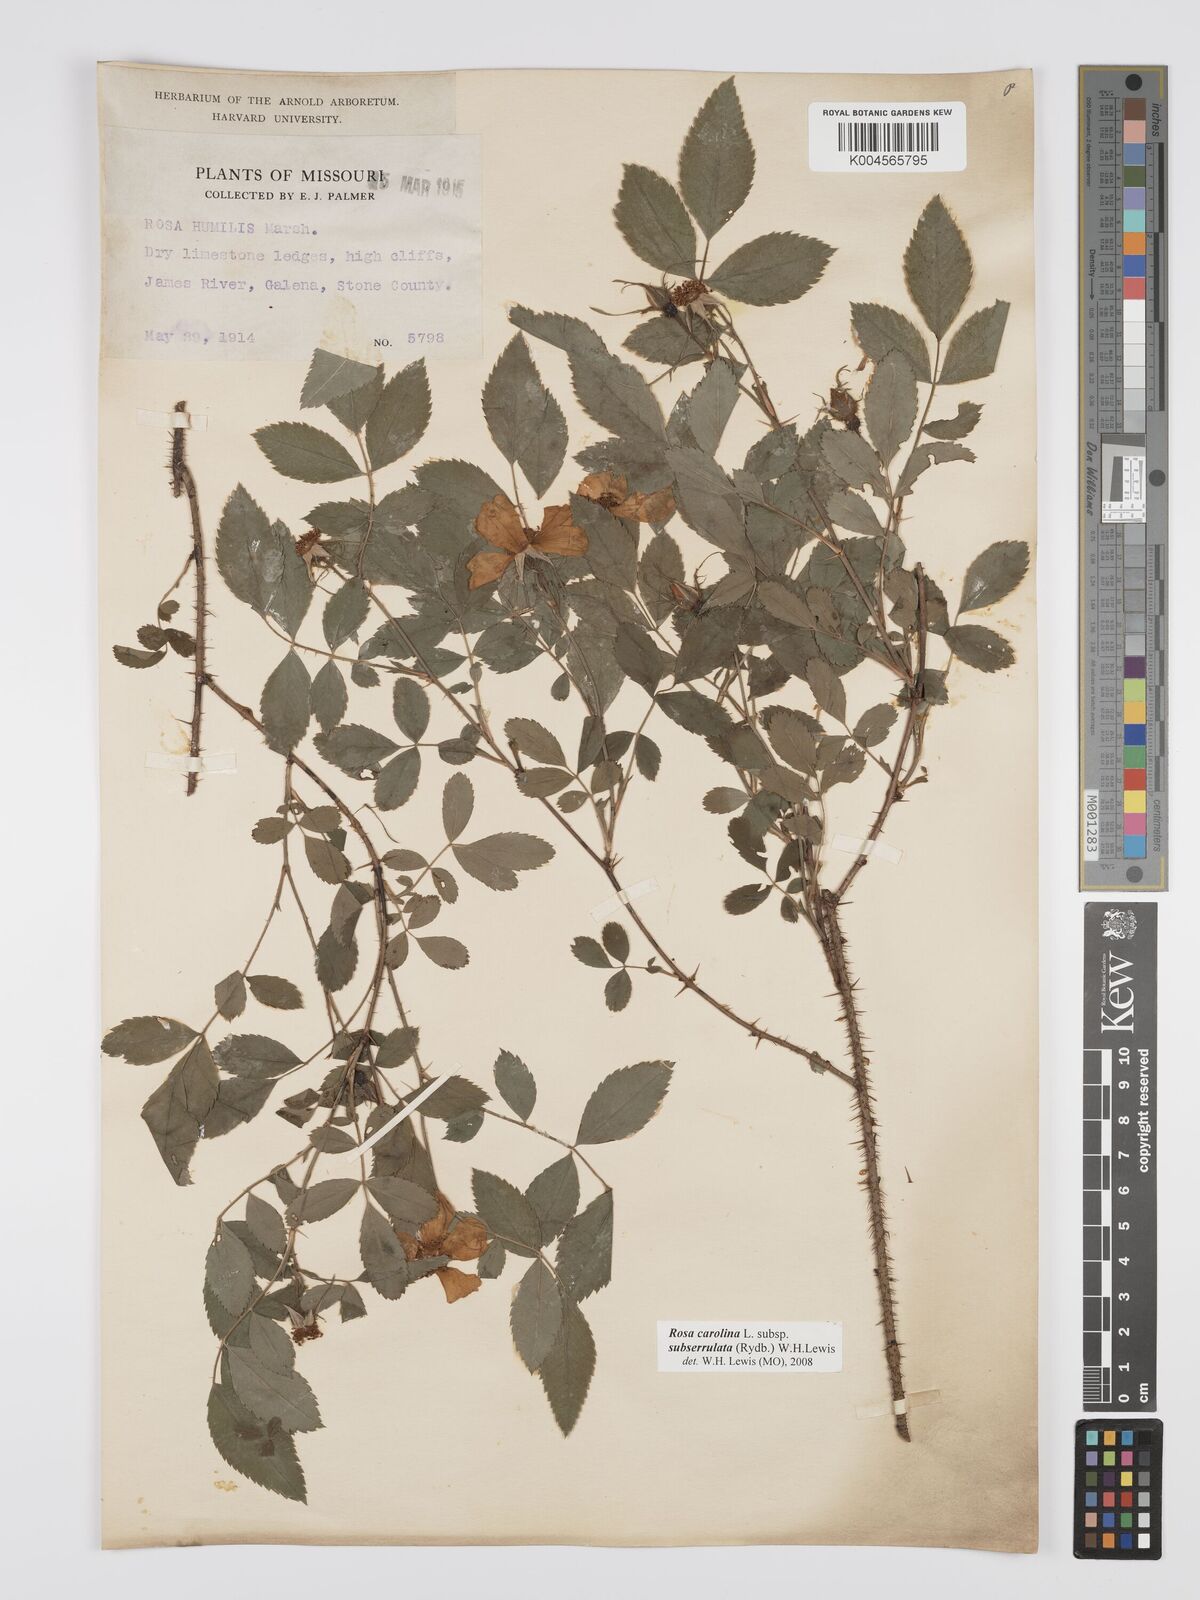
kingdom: Plantae
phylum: Tracheophyta
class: Magnoliopsida
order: Rosales
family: Rosaceae
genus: Rosa
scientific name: Rosa carolina
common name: Pasture rose
